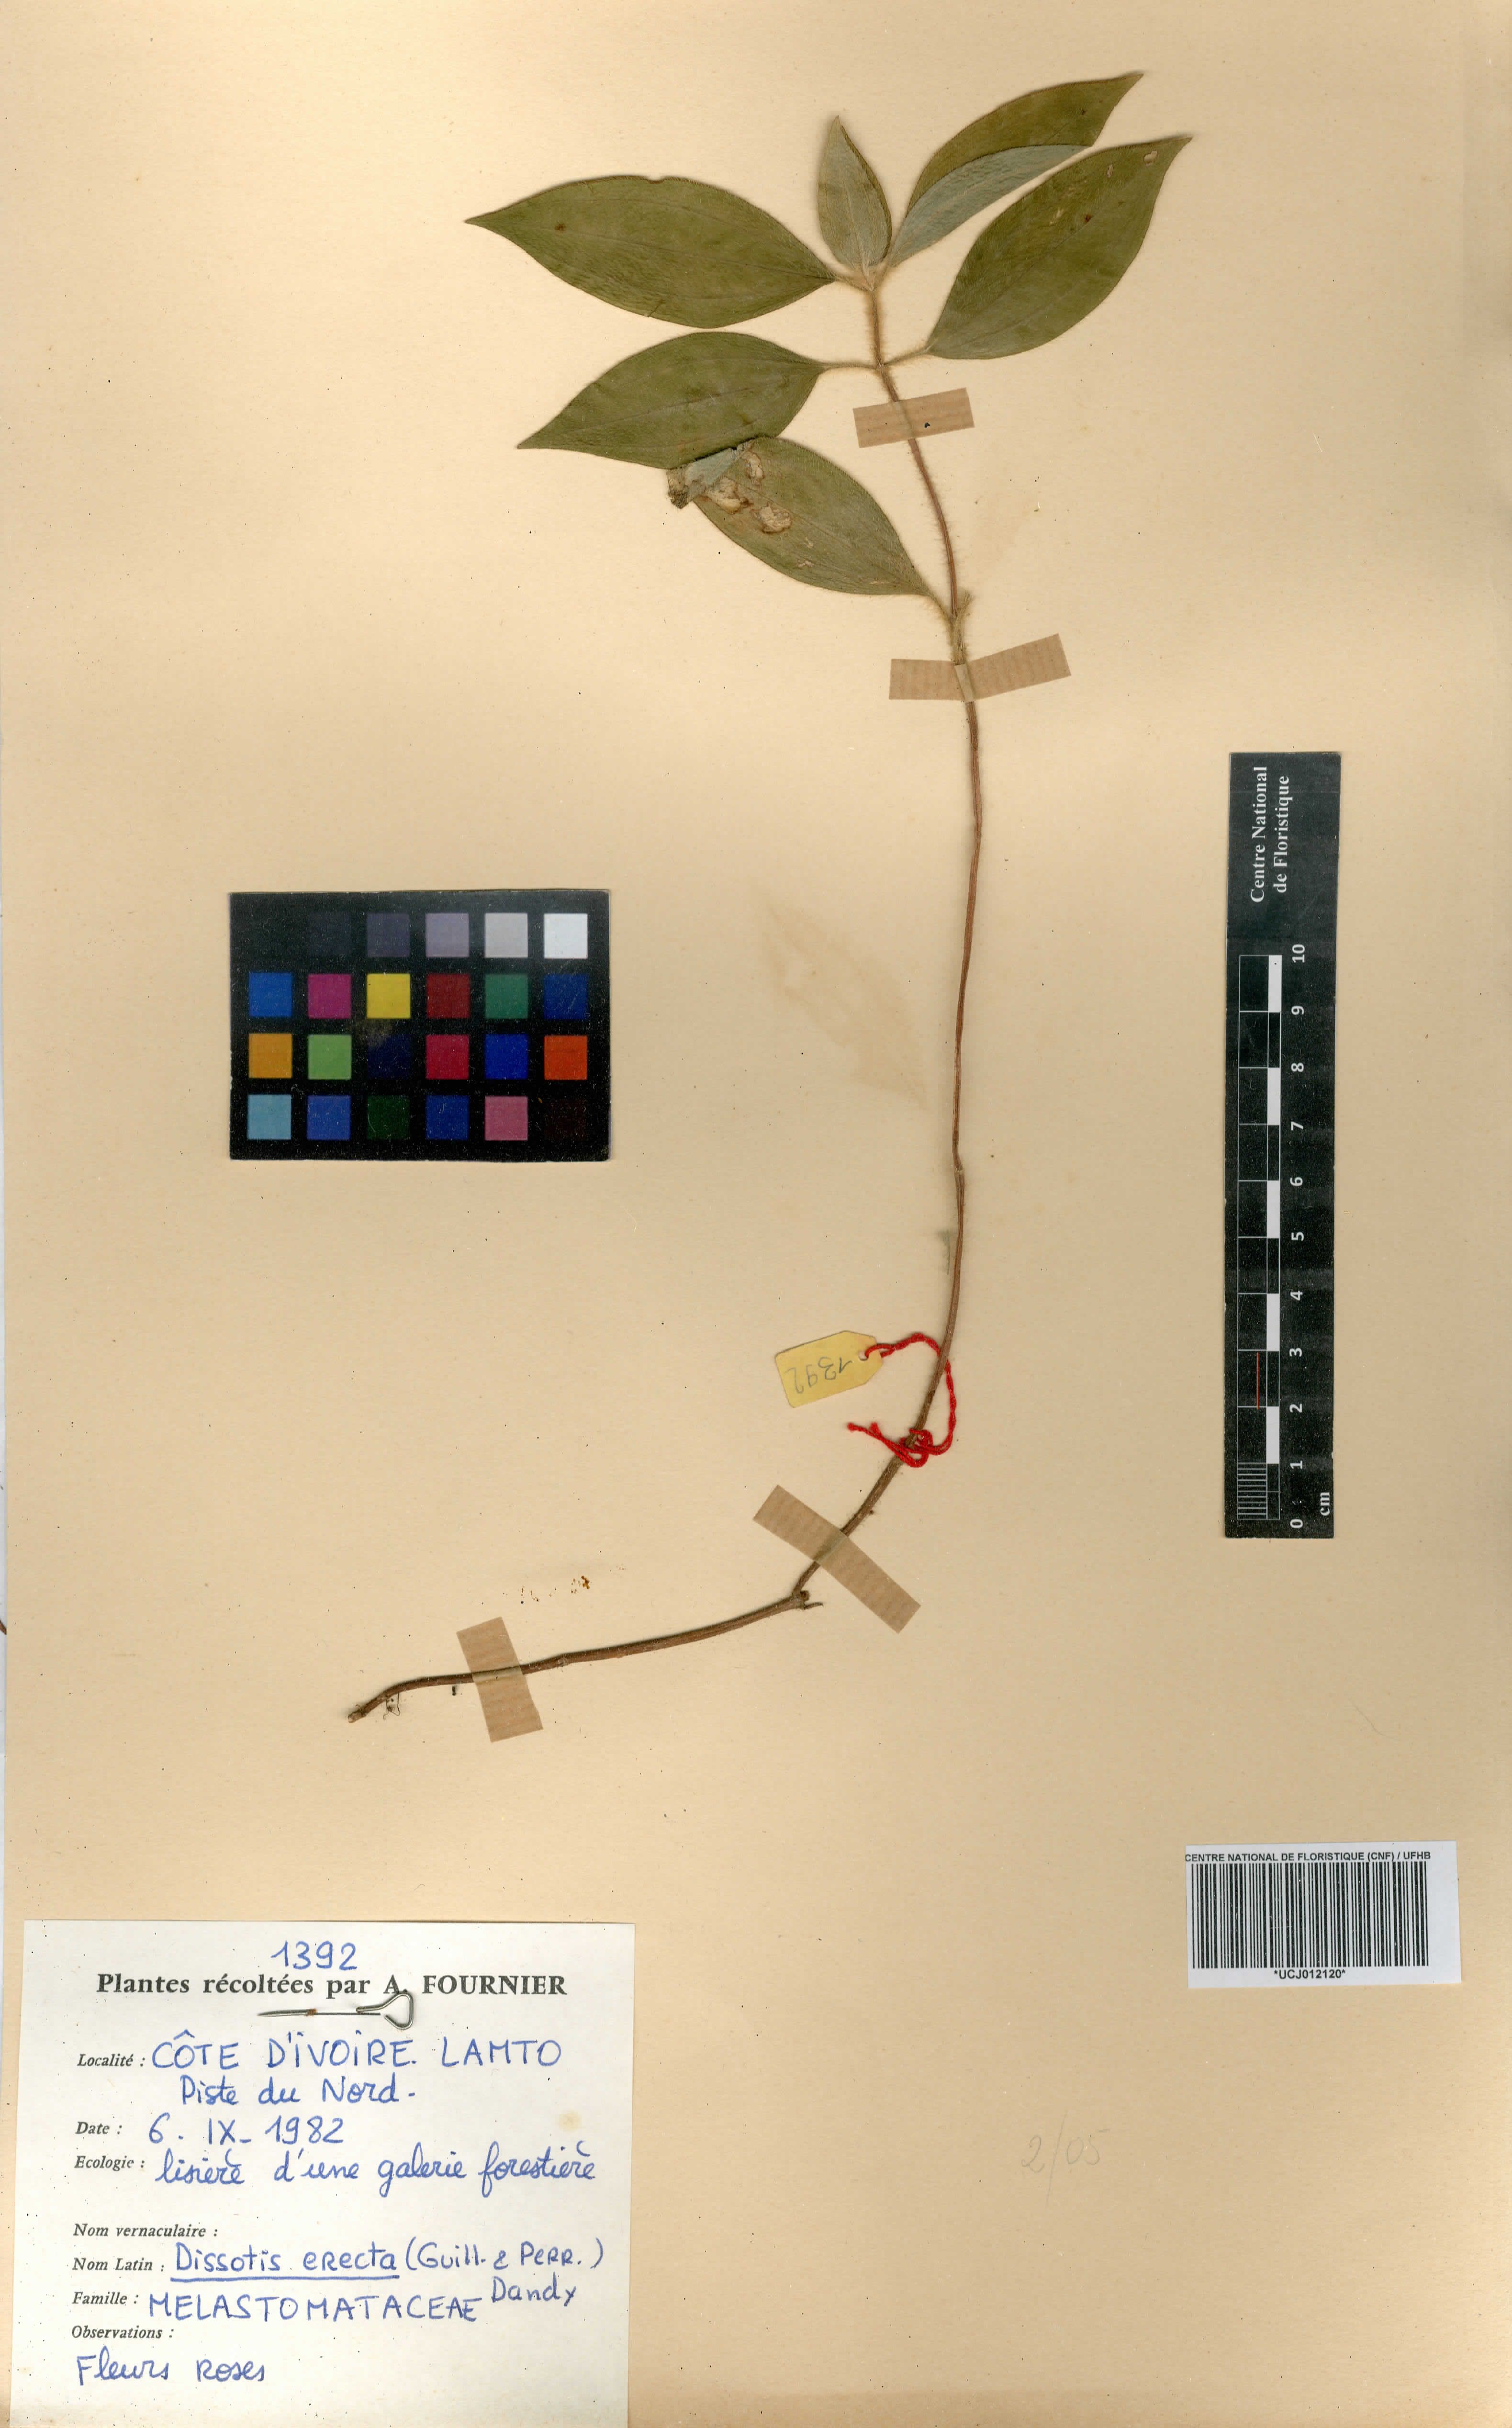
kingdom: Plantae
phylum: Tracheophyta
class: Magnoliopsida
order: Myrtales
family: Melastomataceae
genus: Melastomastrum
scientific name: Melastomastrum capitatum
